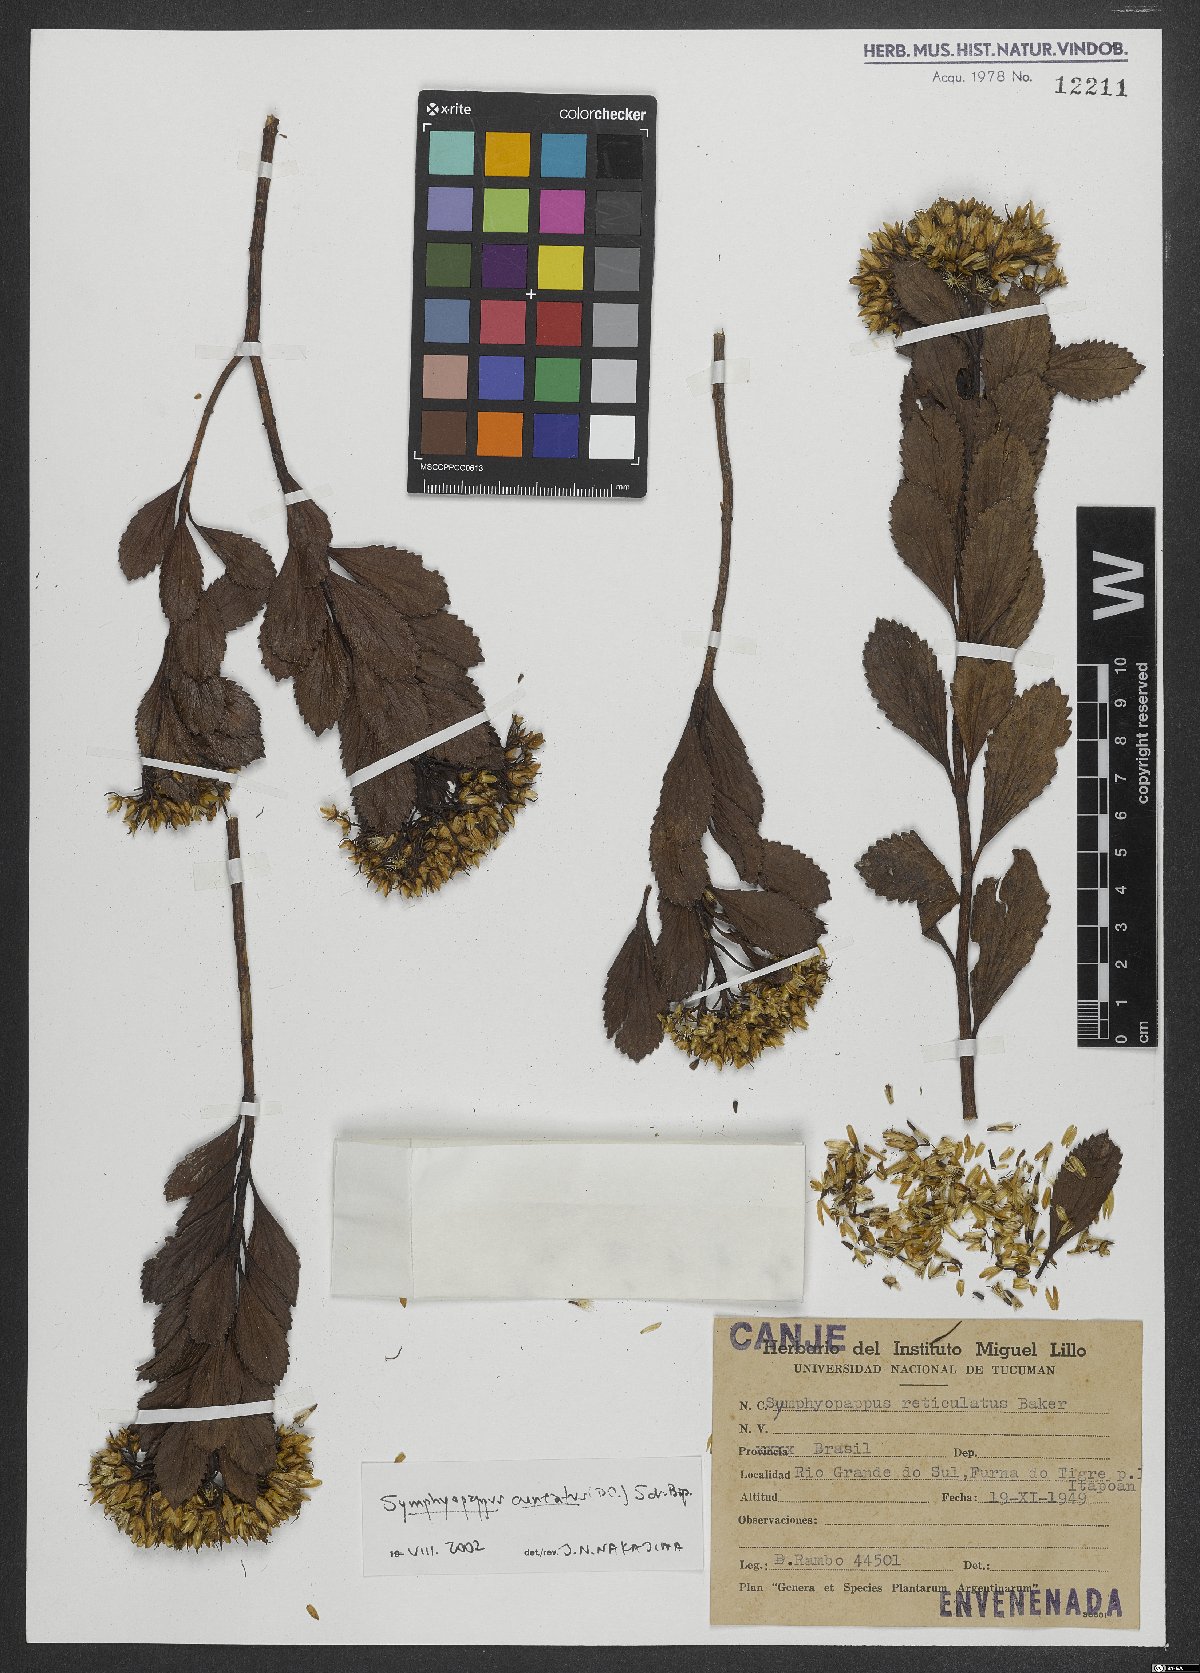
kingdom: Plantae
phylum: Tracheophyta
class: Magnoliopsida
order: Asterales
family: Asteraceae
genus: Symphyopappus
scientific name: Symphyopappus cuneatus
